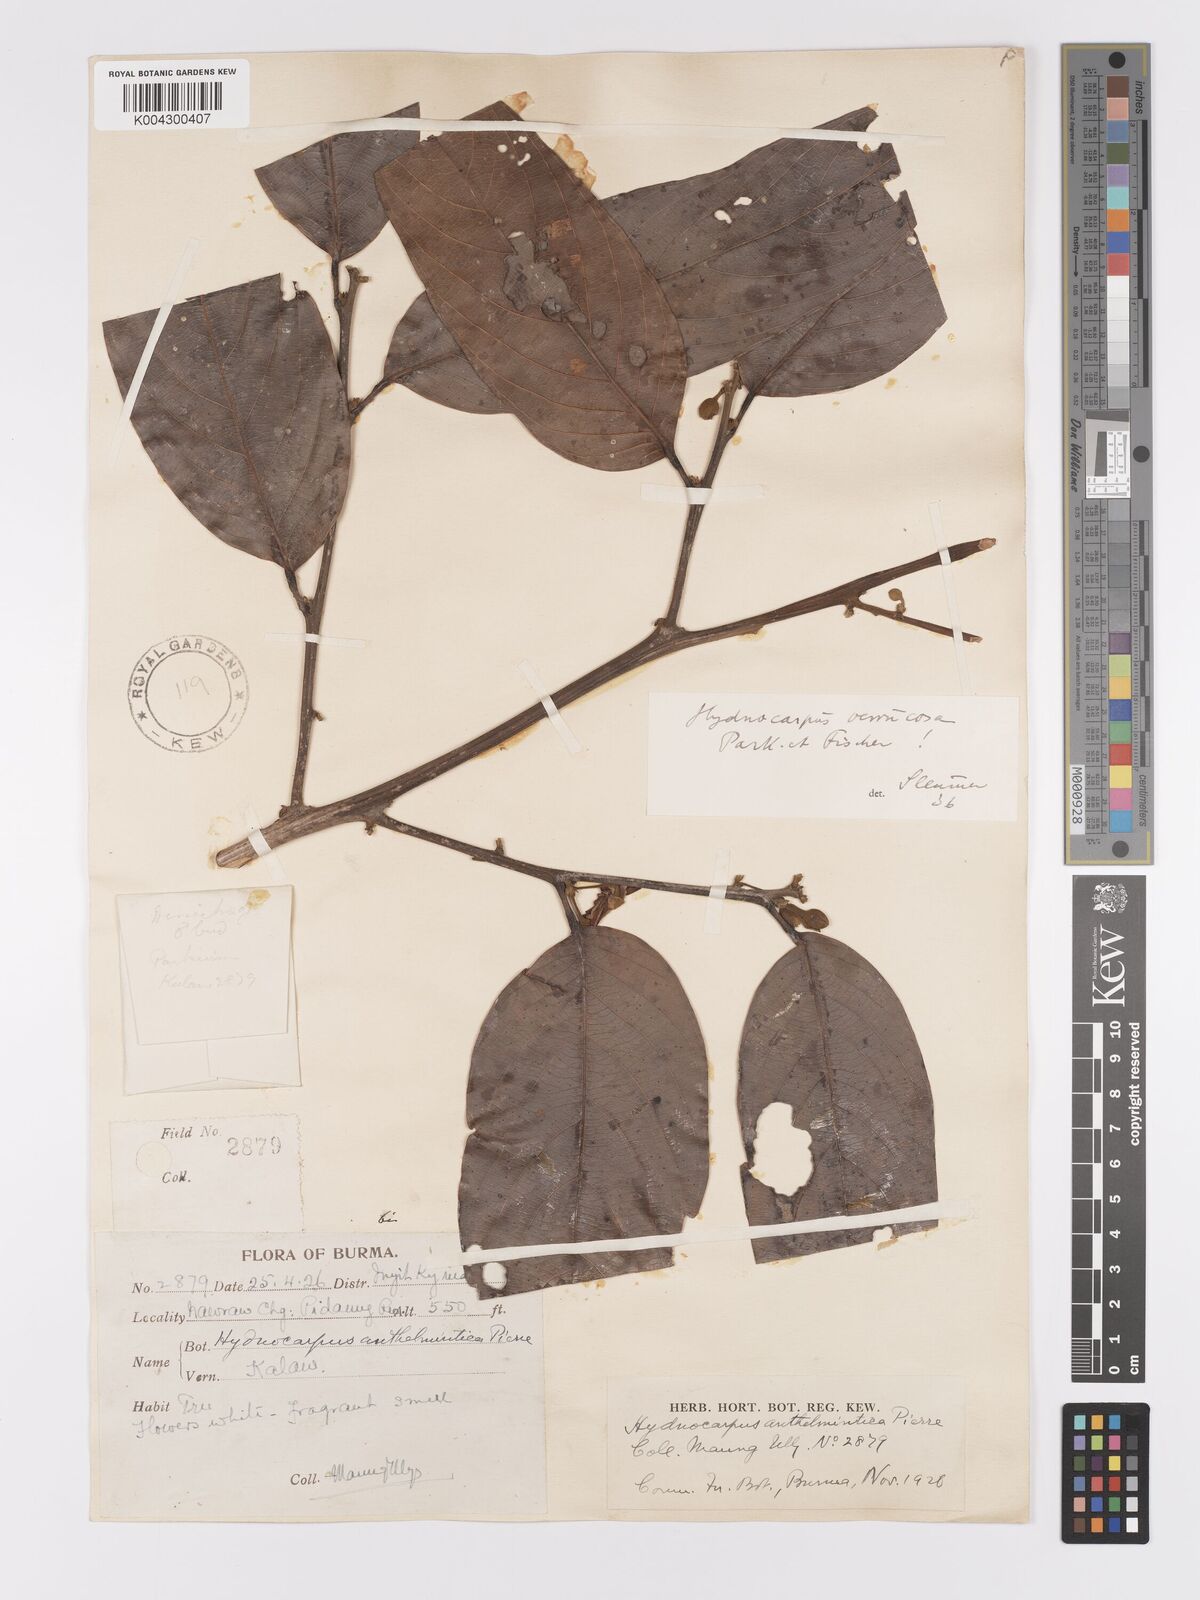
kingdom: Plantae
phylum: Tracheophyta
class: Magnoliopsida
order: Malpighiales
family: Achariaceae
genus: Hydnocarpus
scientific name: Hydnocarpus verrucosus
